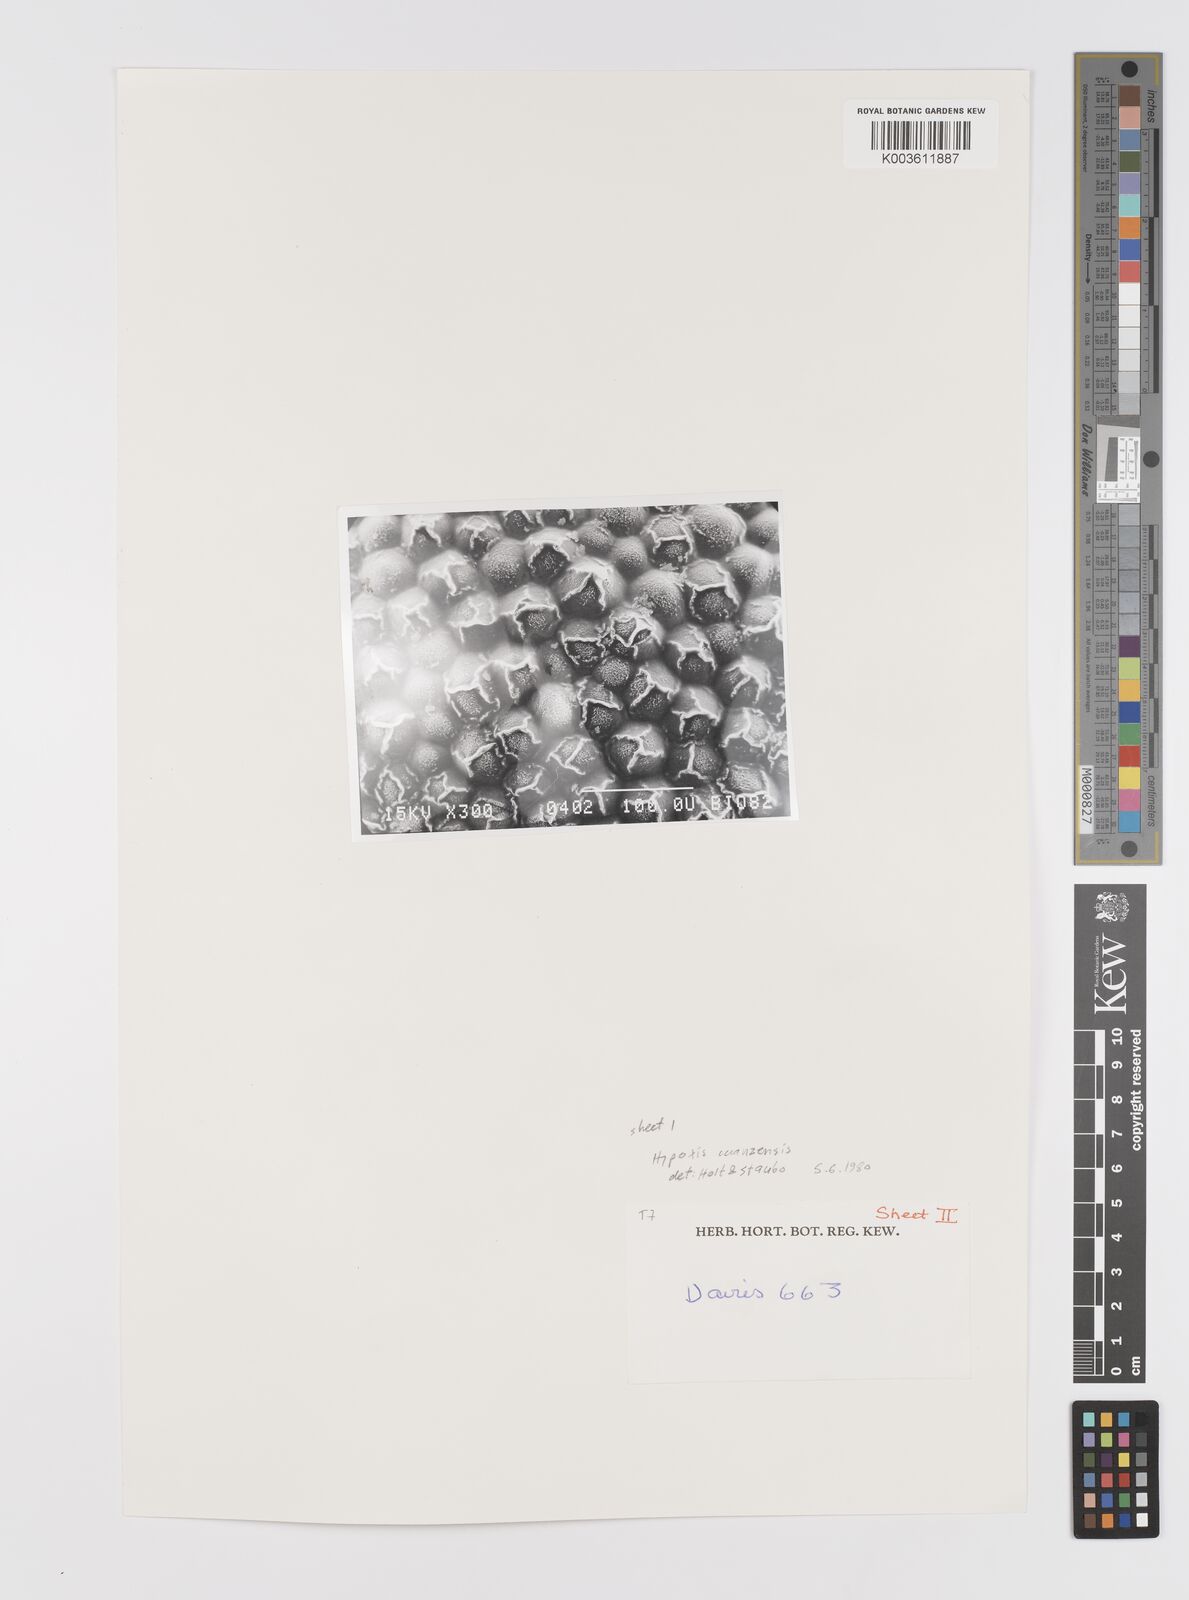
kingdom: Plantae
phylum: Tracheophyta
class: Liliopsida
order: Asparagales
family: Hypoxidaceae
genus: Hypoxis
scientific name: Hypoxis schimperi
